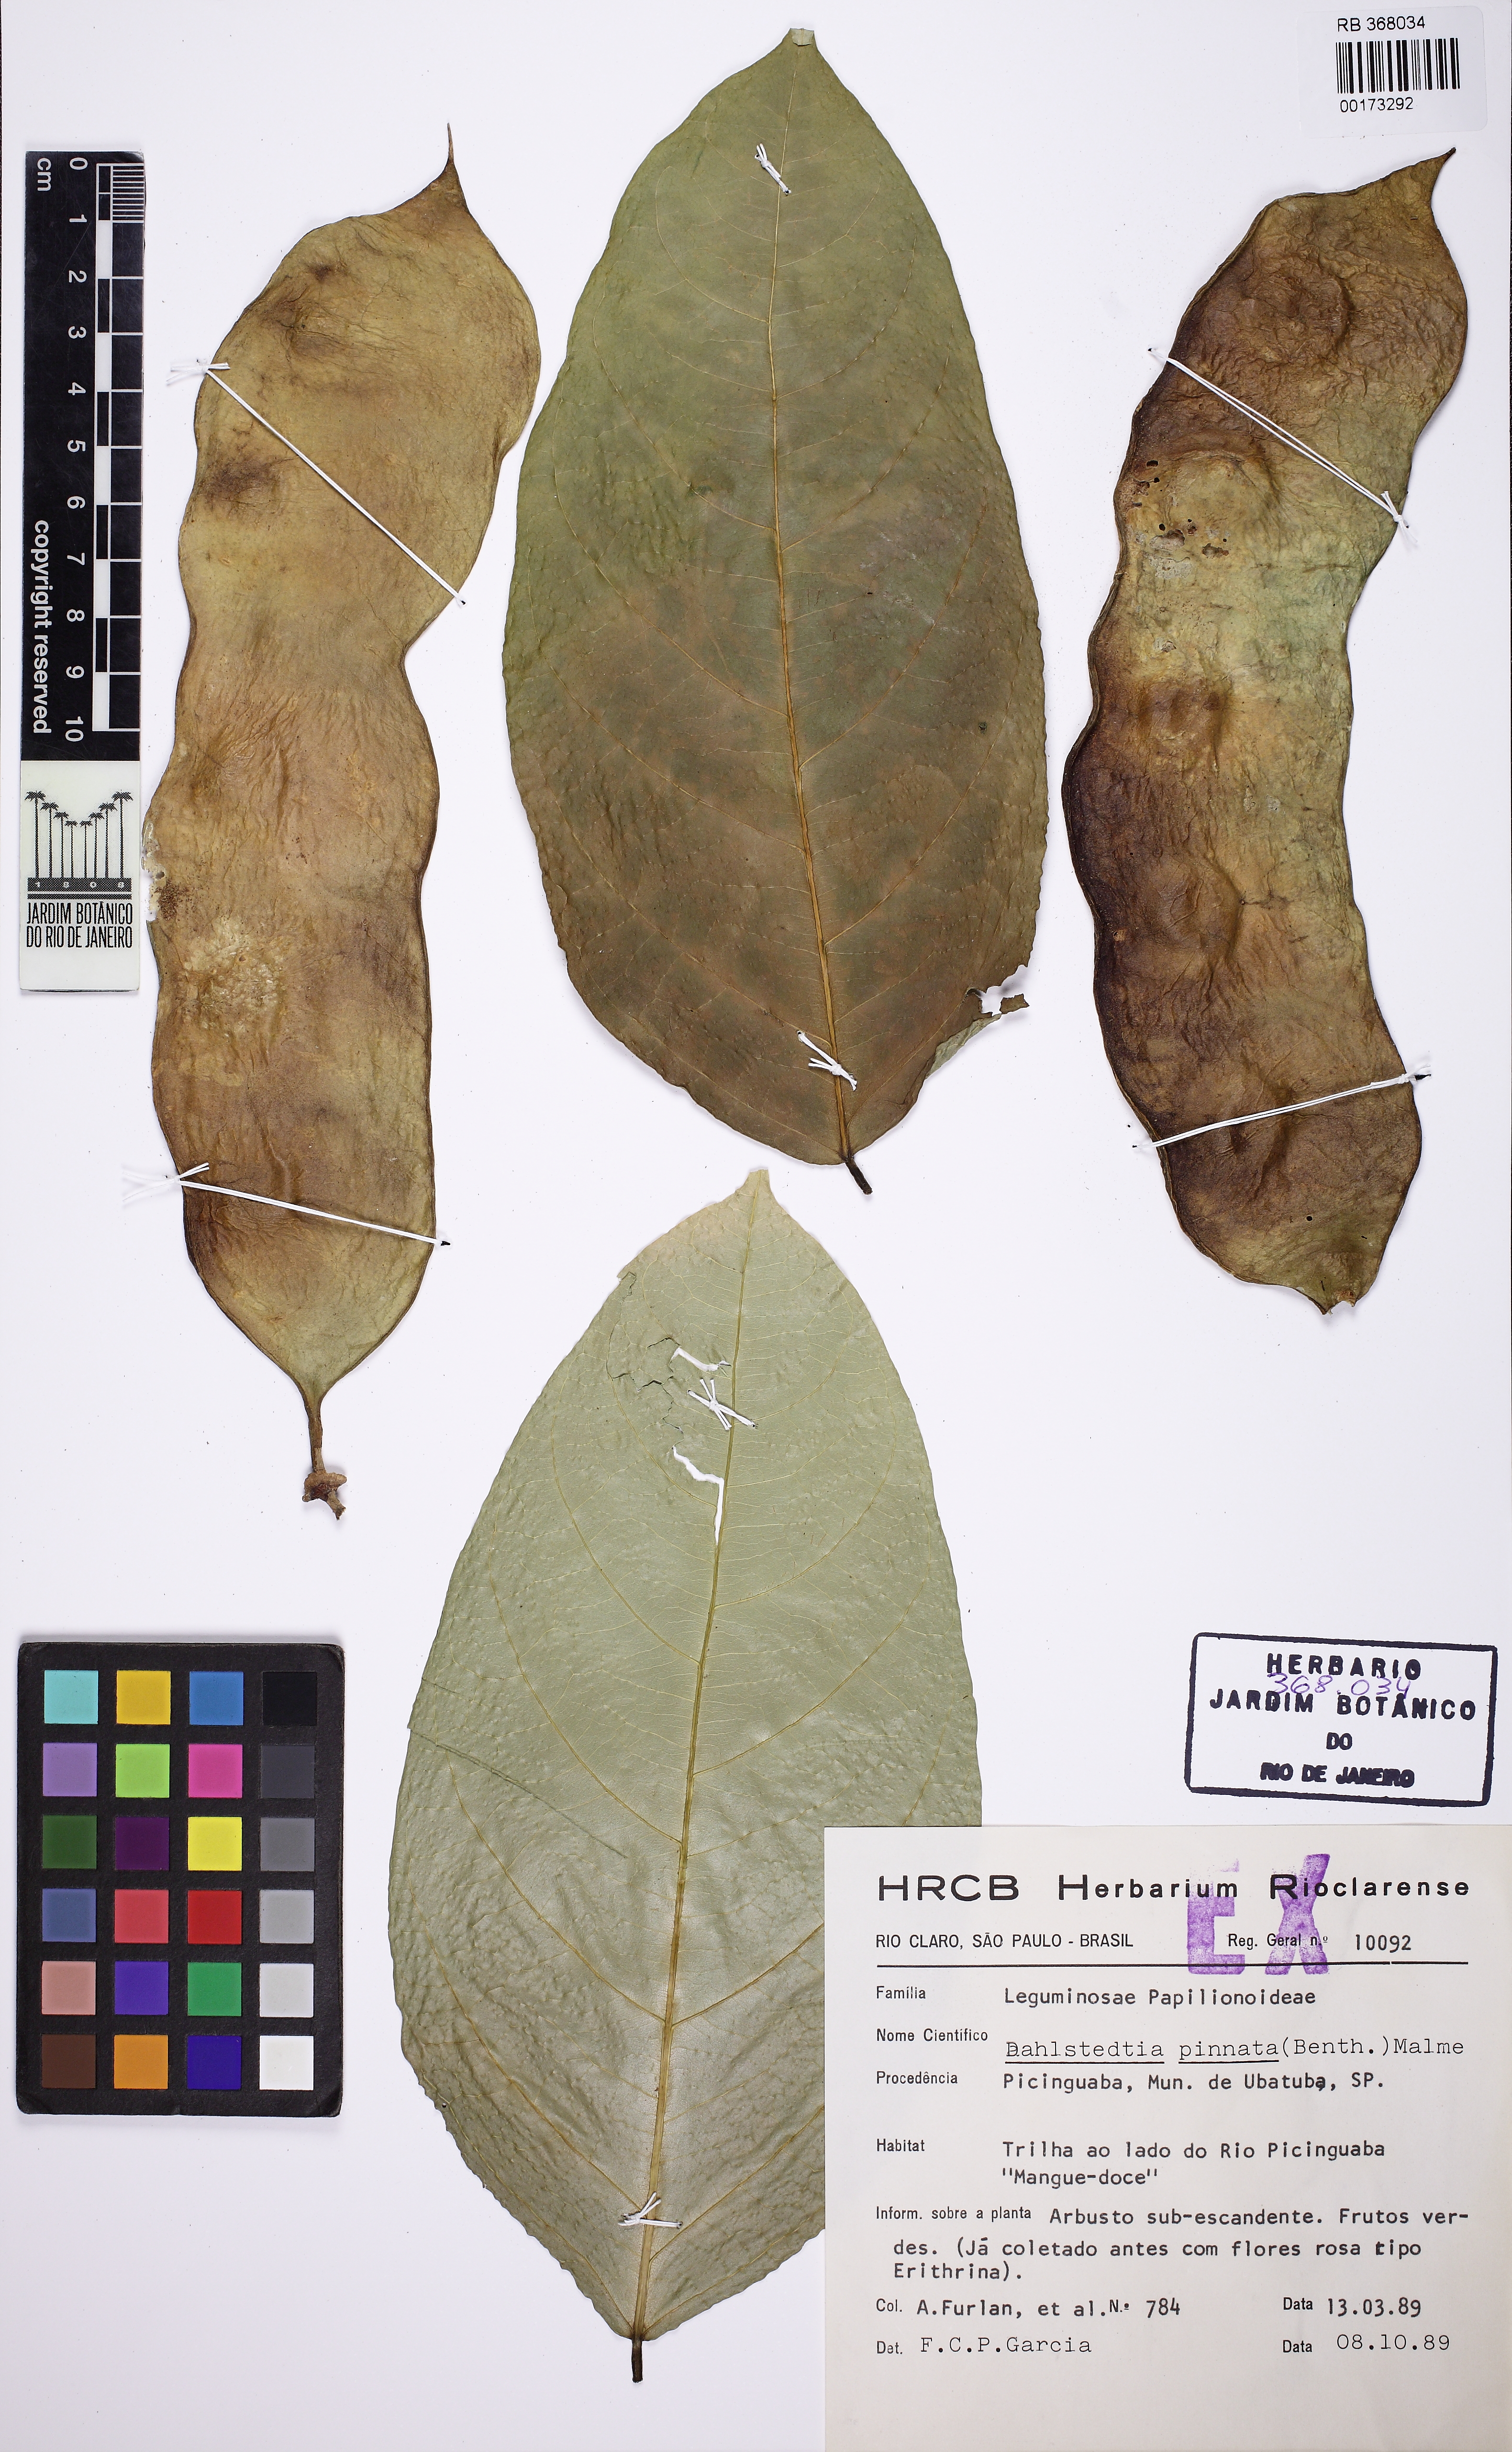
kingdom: Plantae
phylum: Tracheophyta
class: Magnoliopsida
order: Fabales
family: Fabaceae
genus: Dahlstedtia
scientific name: Dahlstedtia pinnata
